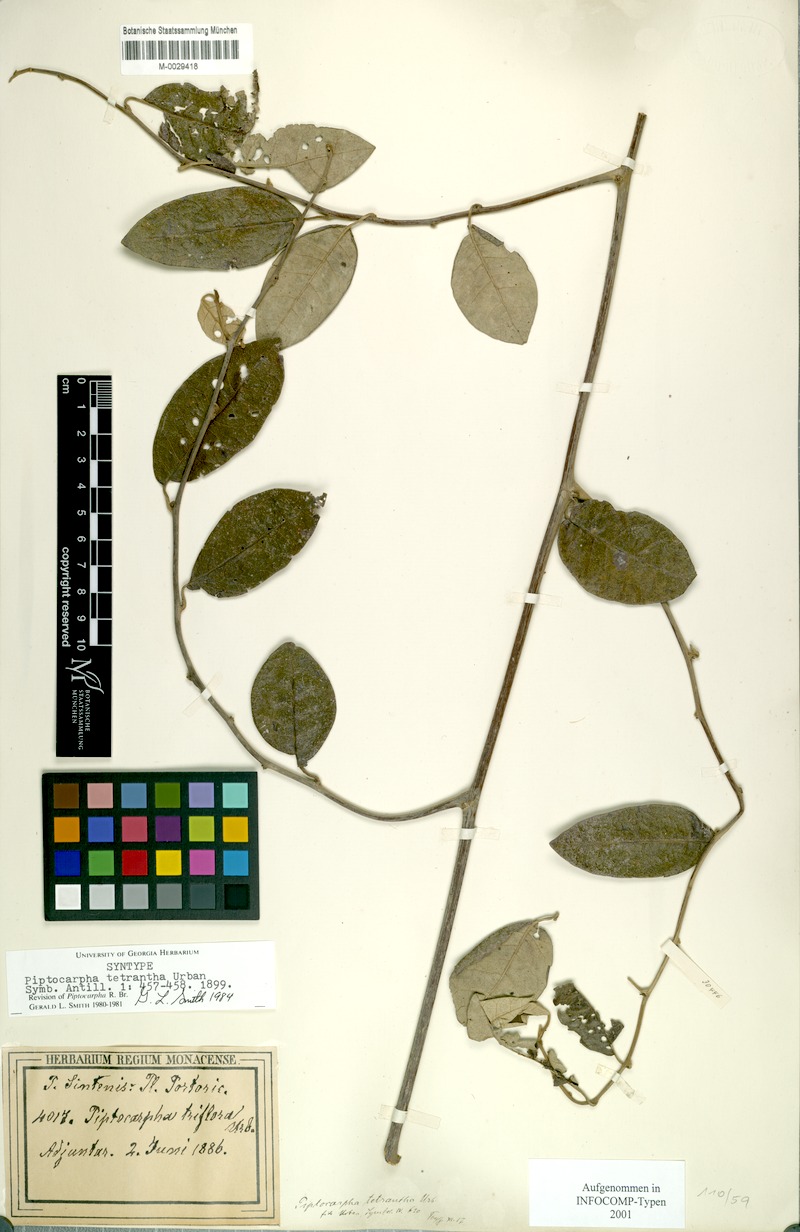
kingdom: Plantae
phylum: Tracheophyta
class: Magnoliopsida
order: Asterales
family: Asteraceae
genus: Piptocarpha
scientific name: Piptocarpha tetrantha
